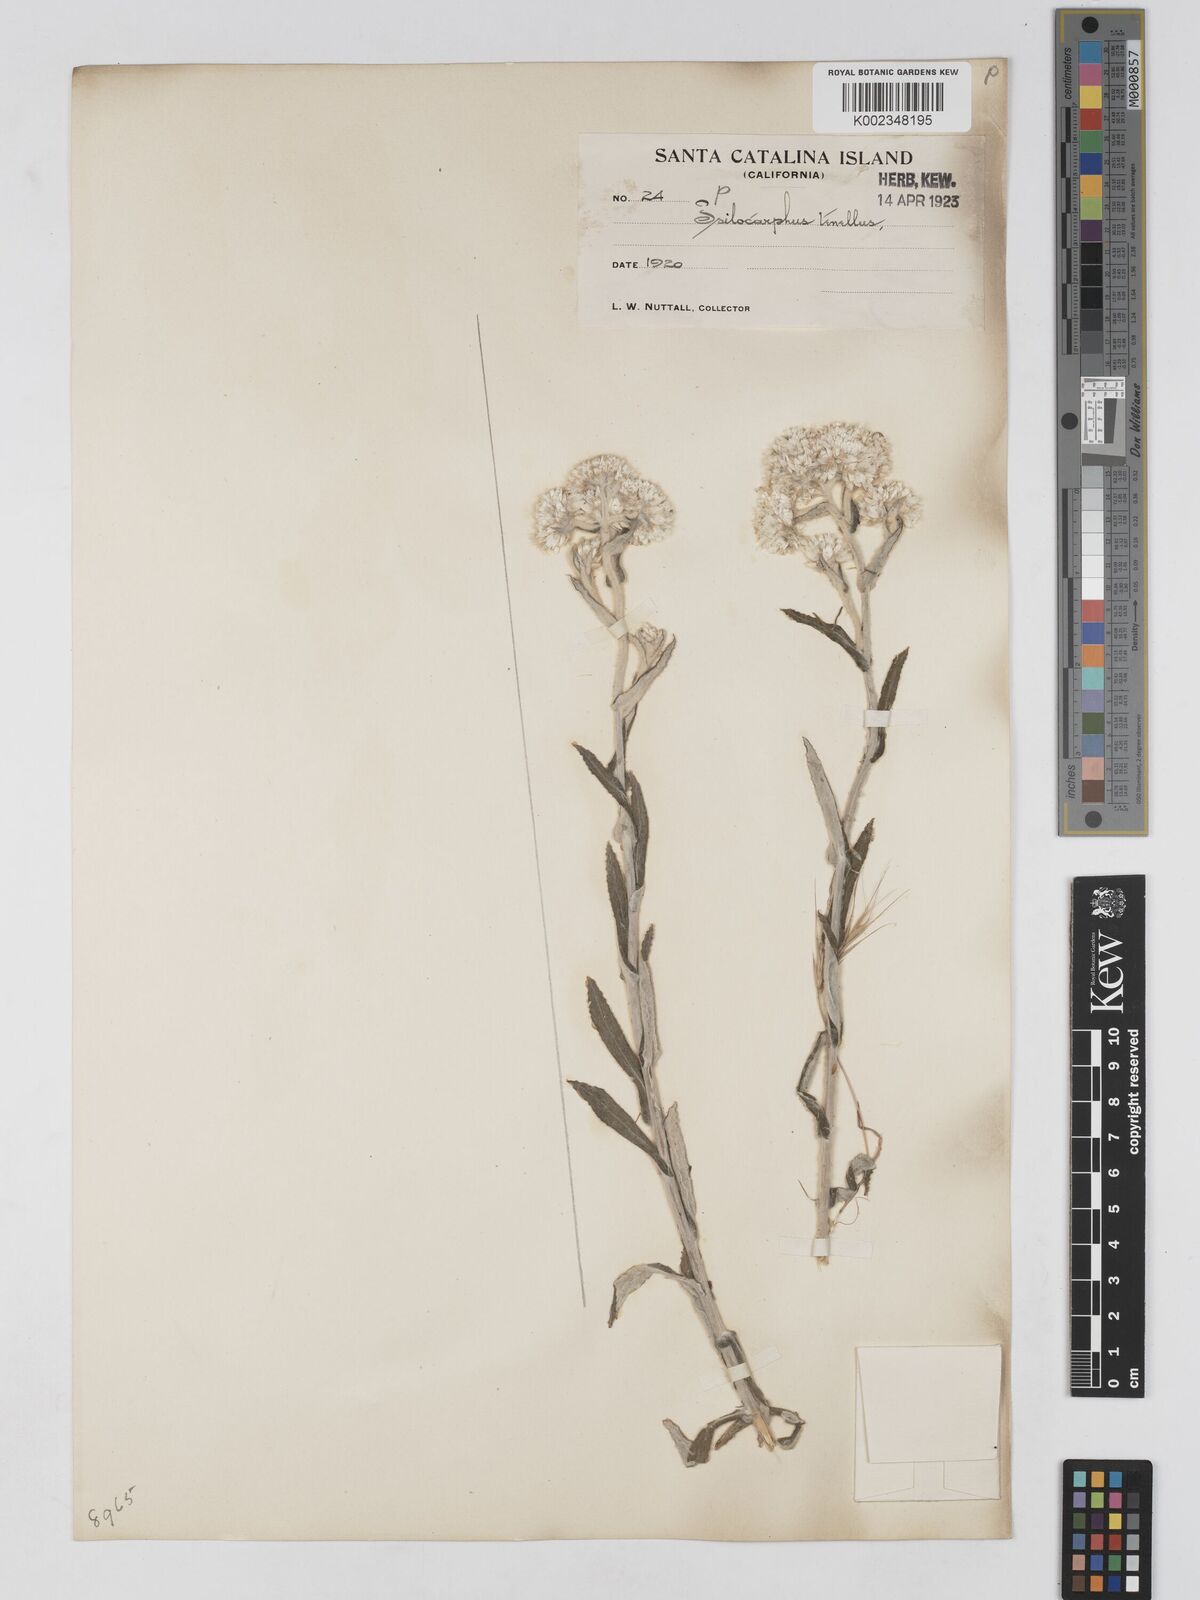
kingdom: Plantae
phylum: Tracheophyta
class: Magnoliopsida
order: Asterales
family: Asteraceae
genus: Anaphalis
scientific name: Anaphalis margaritacea
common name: Pearly everlasting
